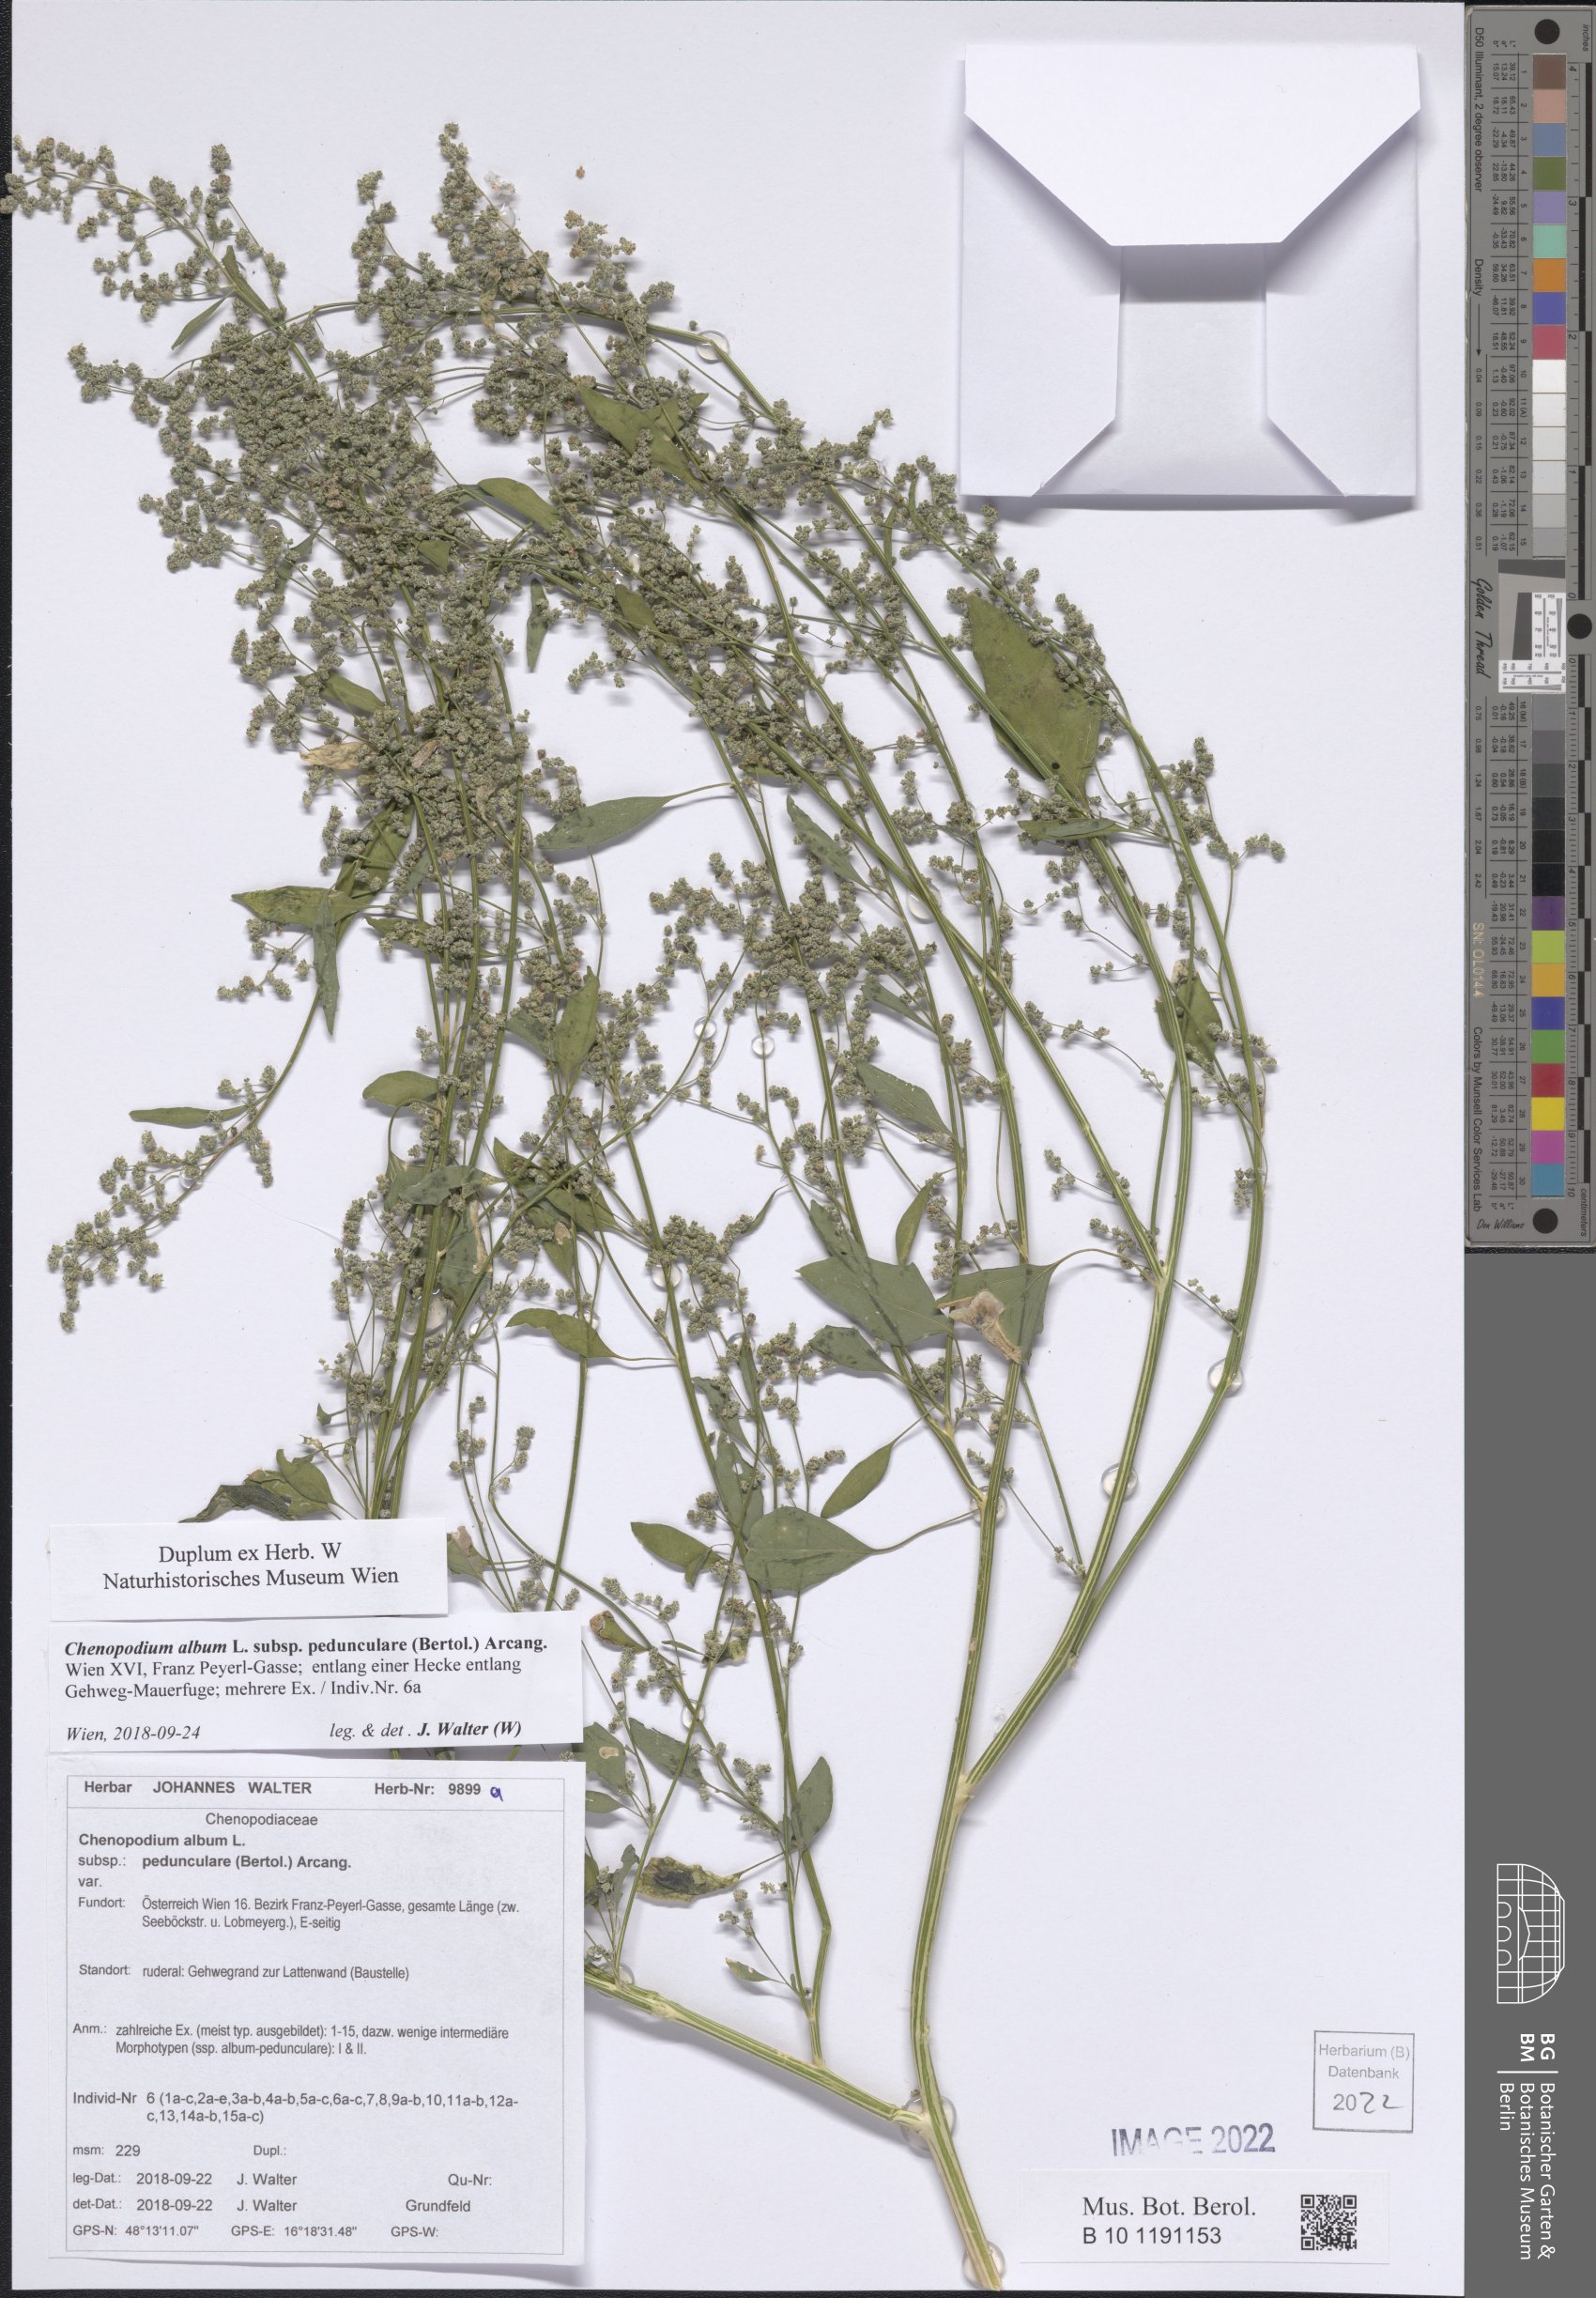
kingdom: Plantae
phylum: Tracheophyta
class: Magnoliopsida
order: Caryophyllales
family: Amaranthaceae
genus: Chenopodium
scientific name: Chenopodium album
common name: Fat-hen
